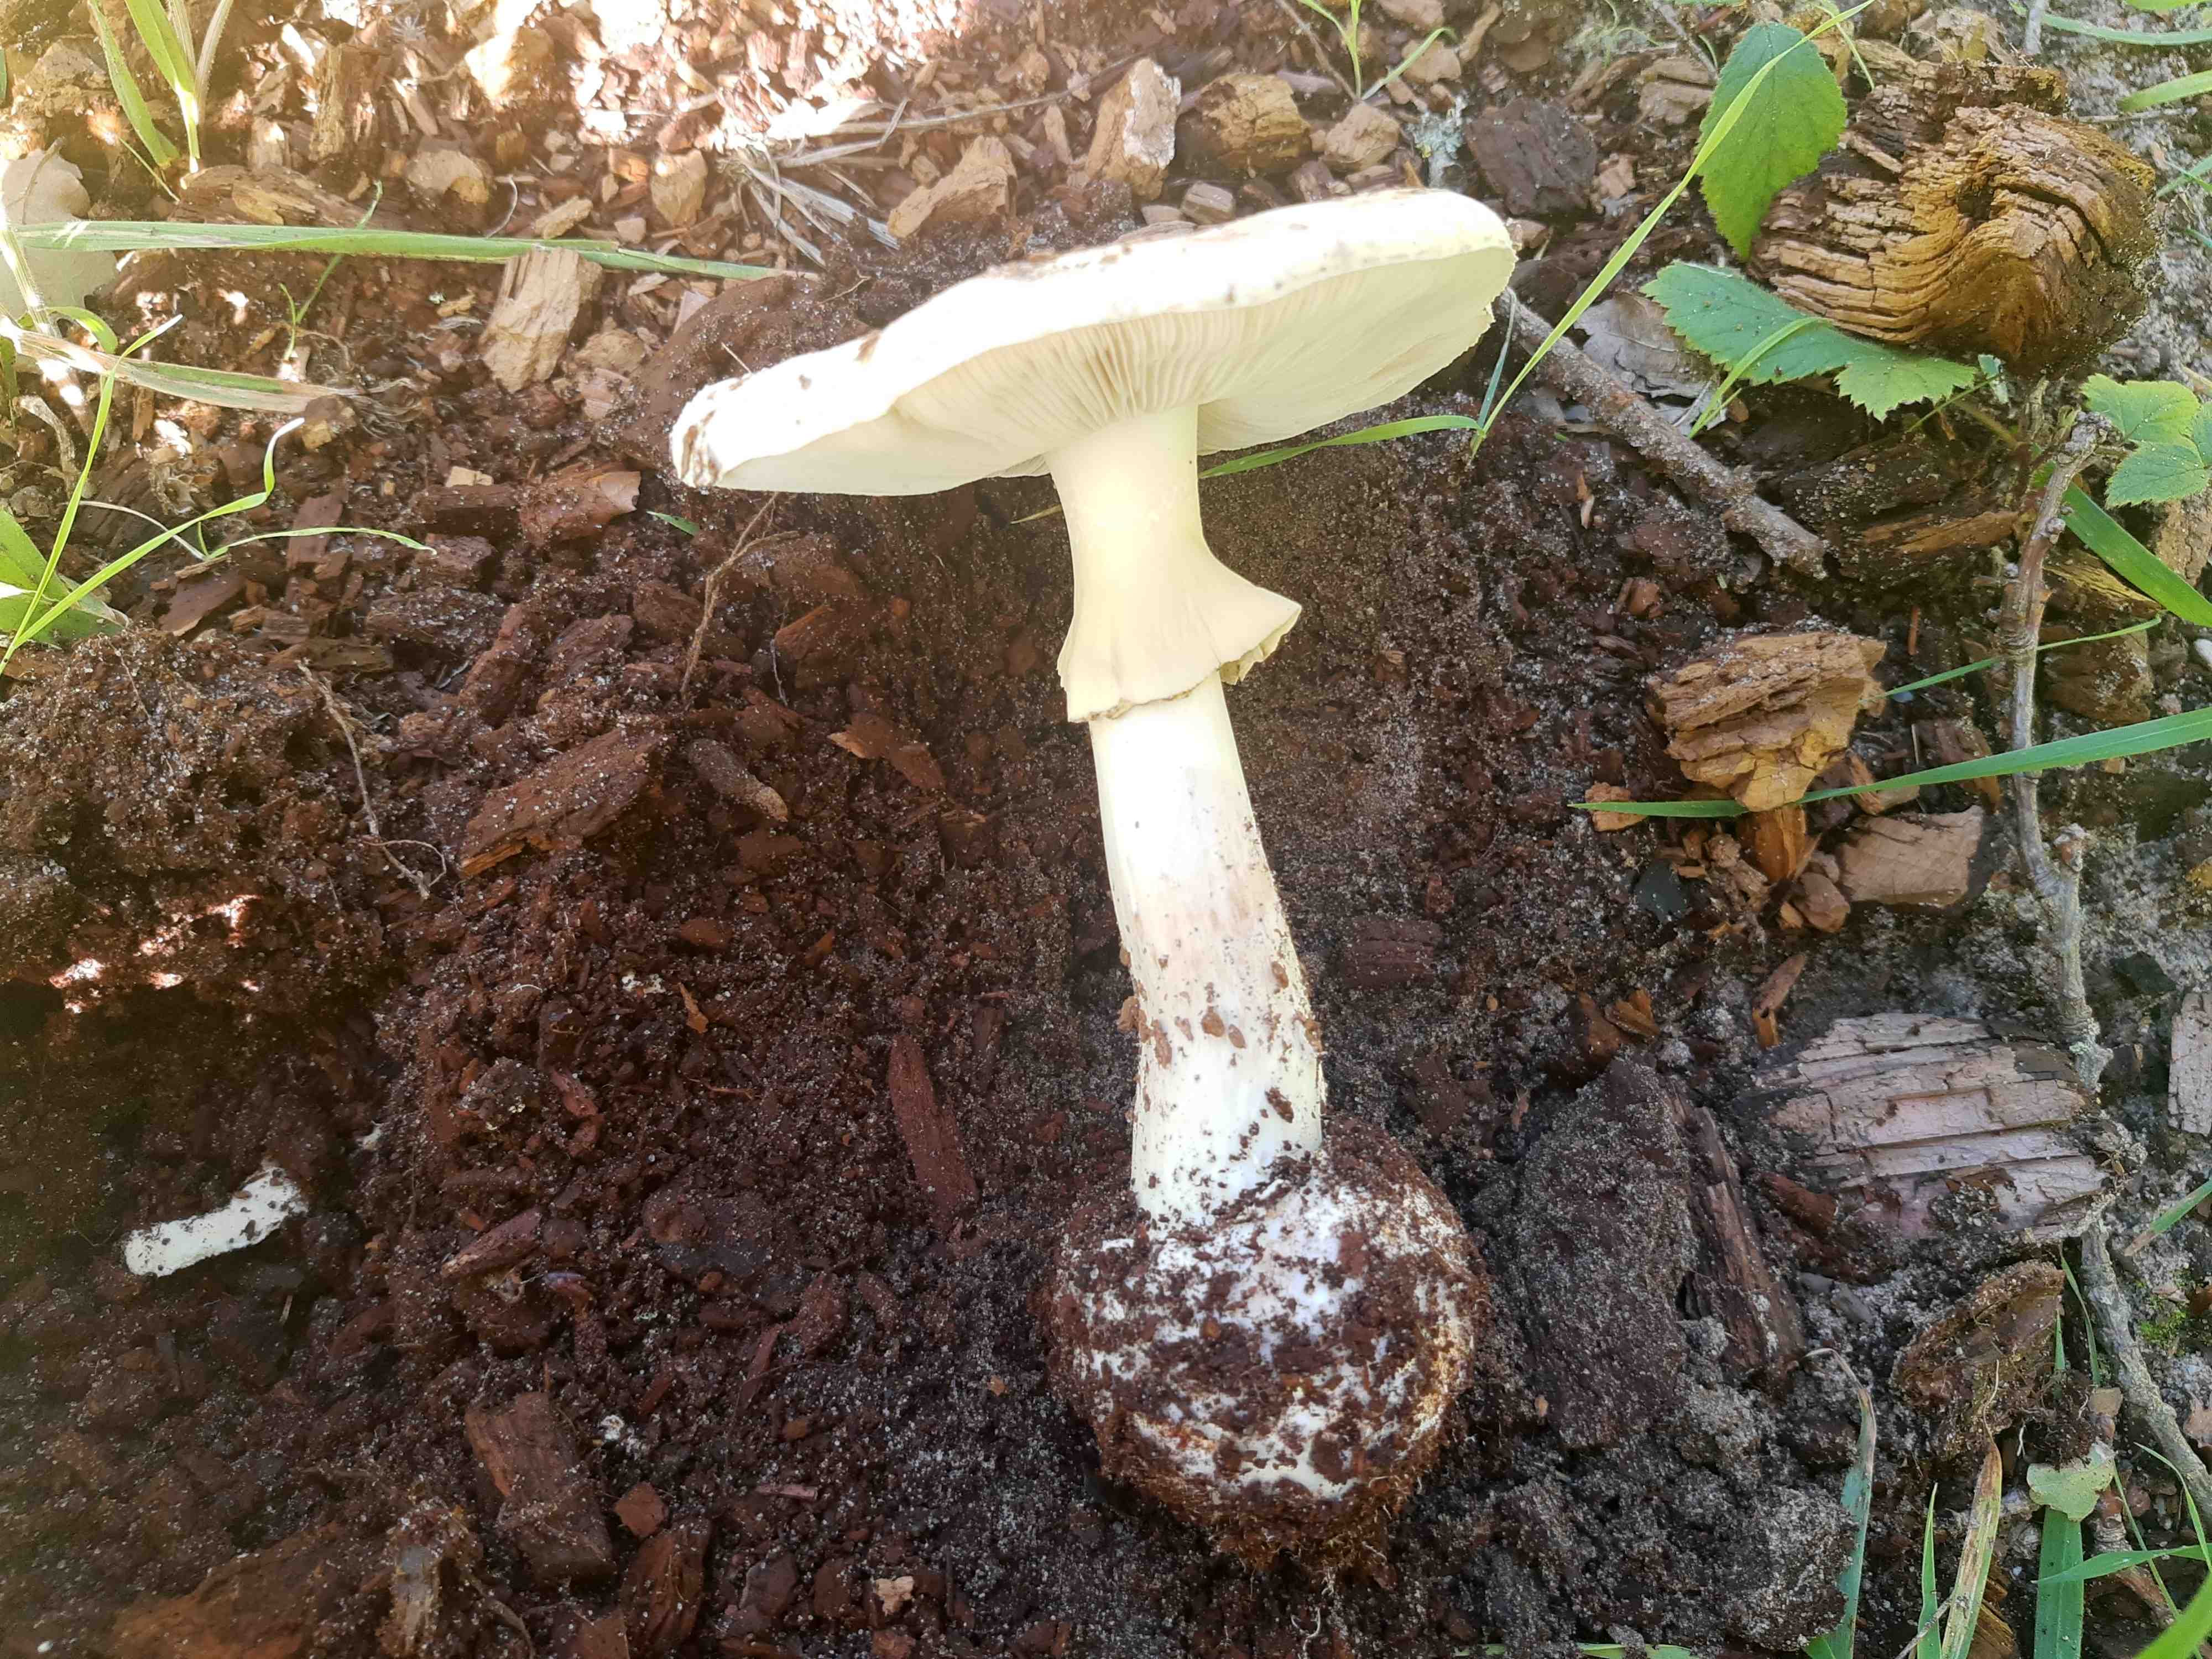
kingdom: Fungi
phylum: Basidiomycota
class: Agaricomycetes
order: Agaricales
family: Amanitaceae
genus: Amanita
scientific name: Amanita citrina
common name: kugleknoldet fluesvamp
